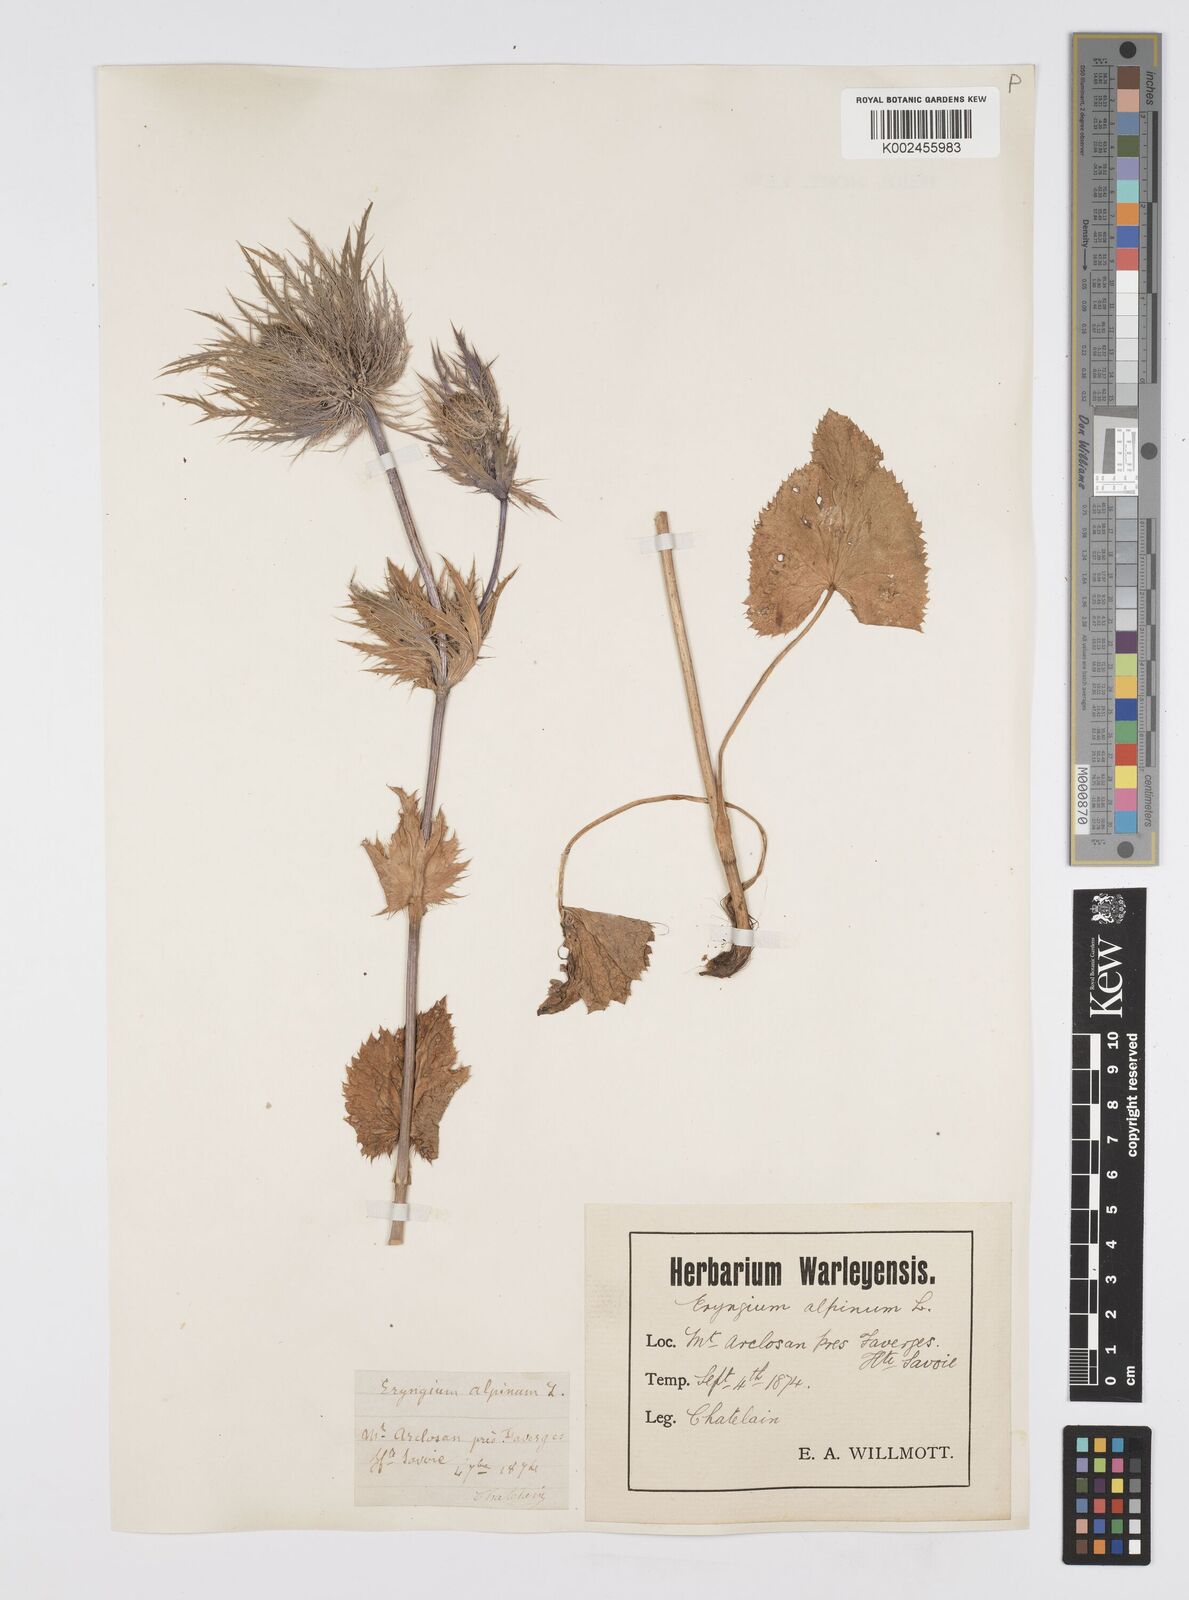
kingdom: Plantae
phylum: Tracheophyta
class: Magnoliopsida
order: Apiales
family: Apiaceae
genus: Eryngium
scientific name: Eryngium alpinum
